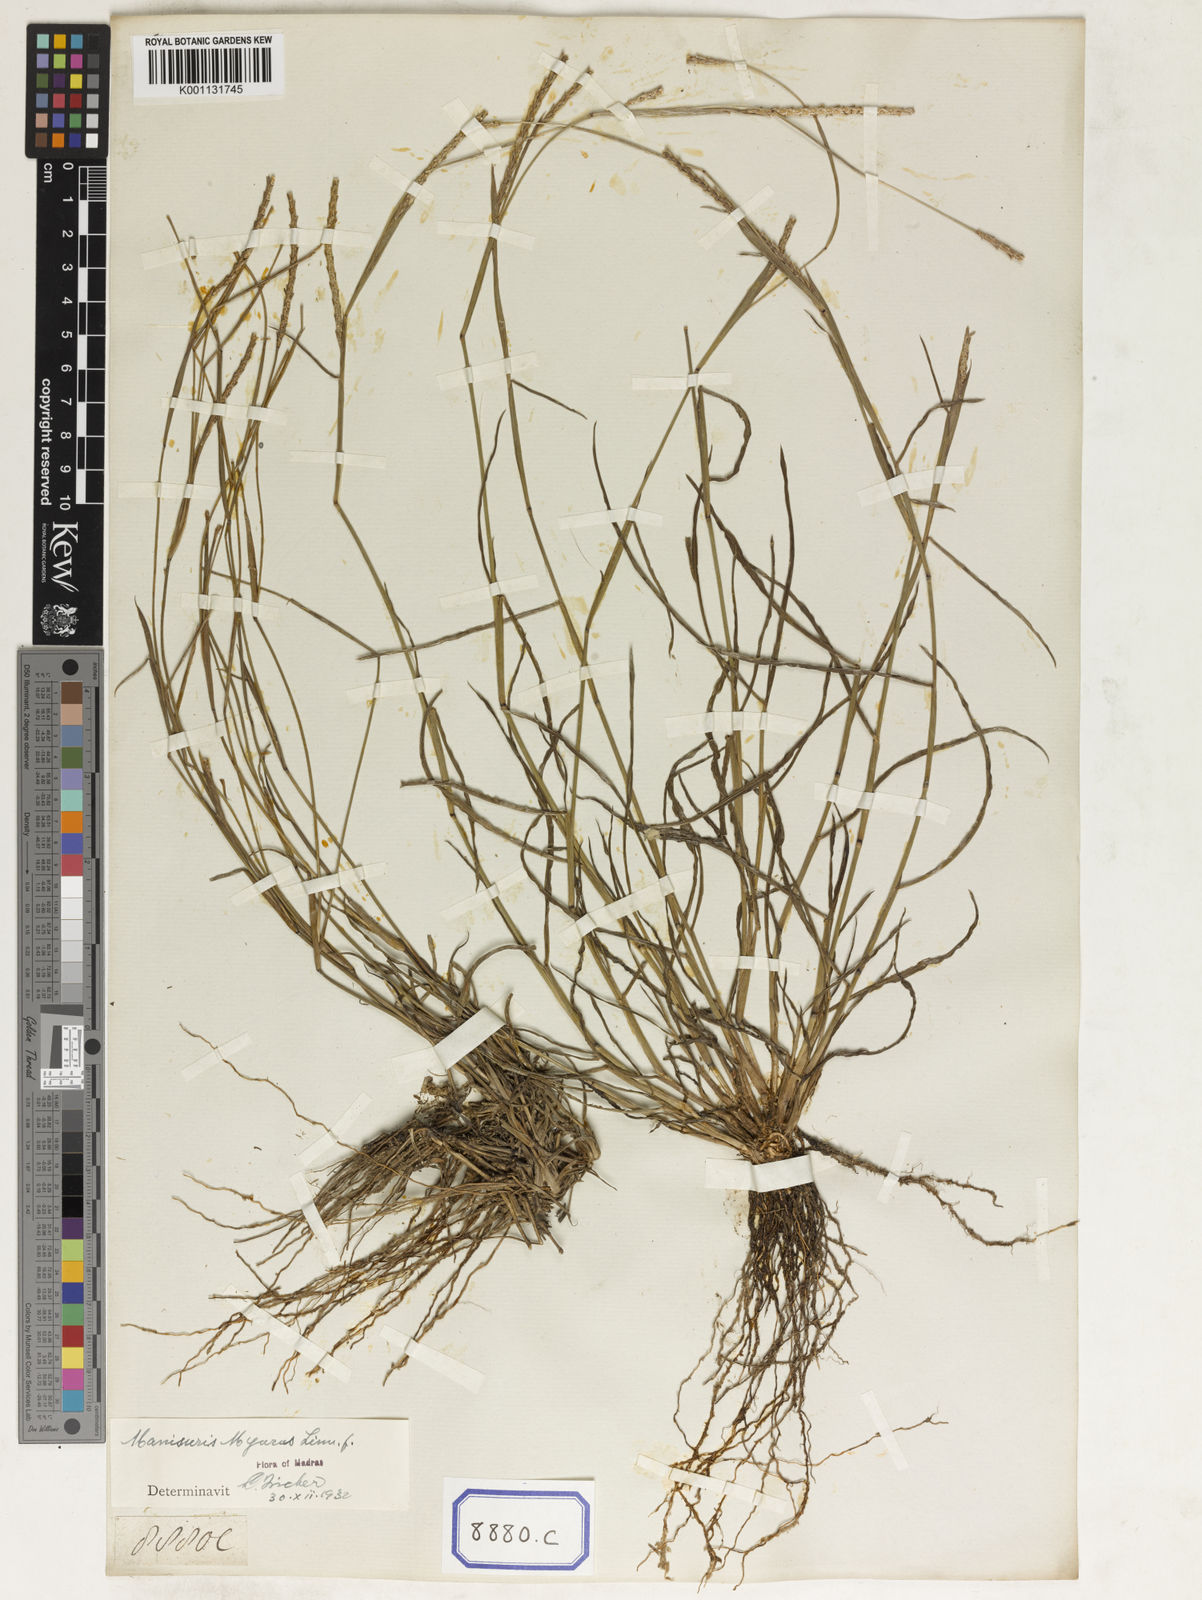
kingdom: Plantae
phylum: Tracheophyta
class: Liliopsida
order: Poales
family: Poaceae
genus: Manisuris
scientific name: Manisuris myurus
